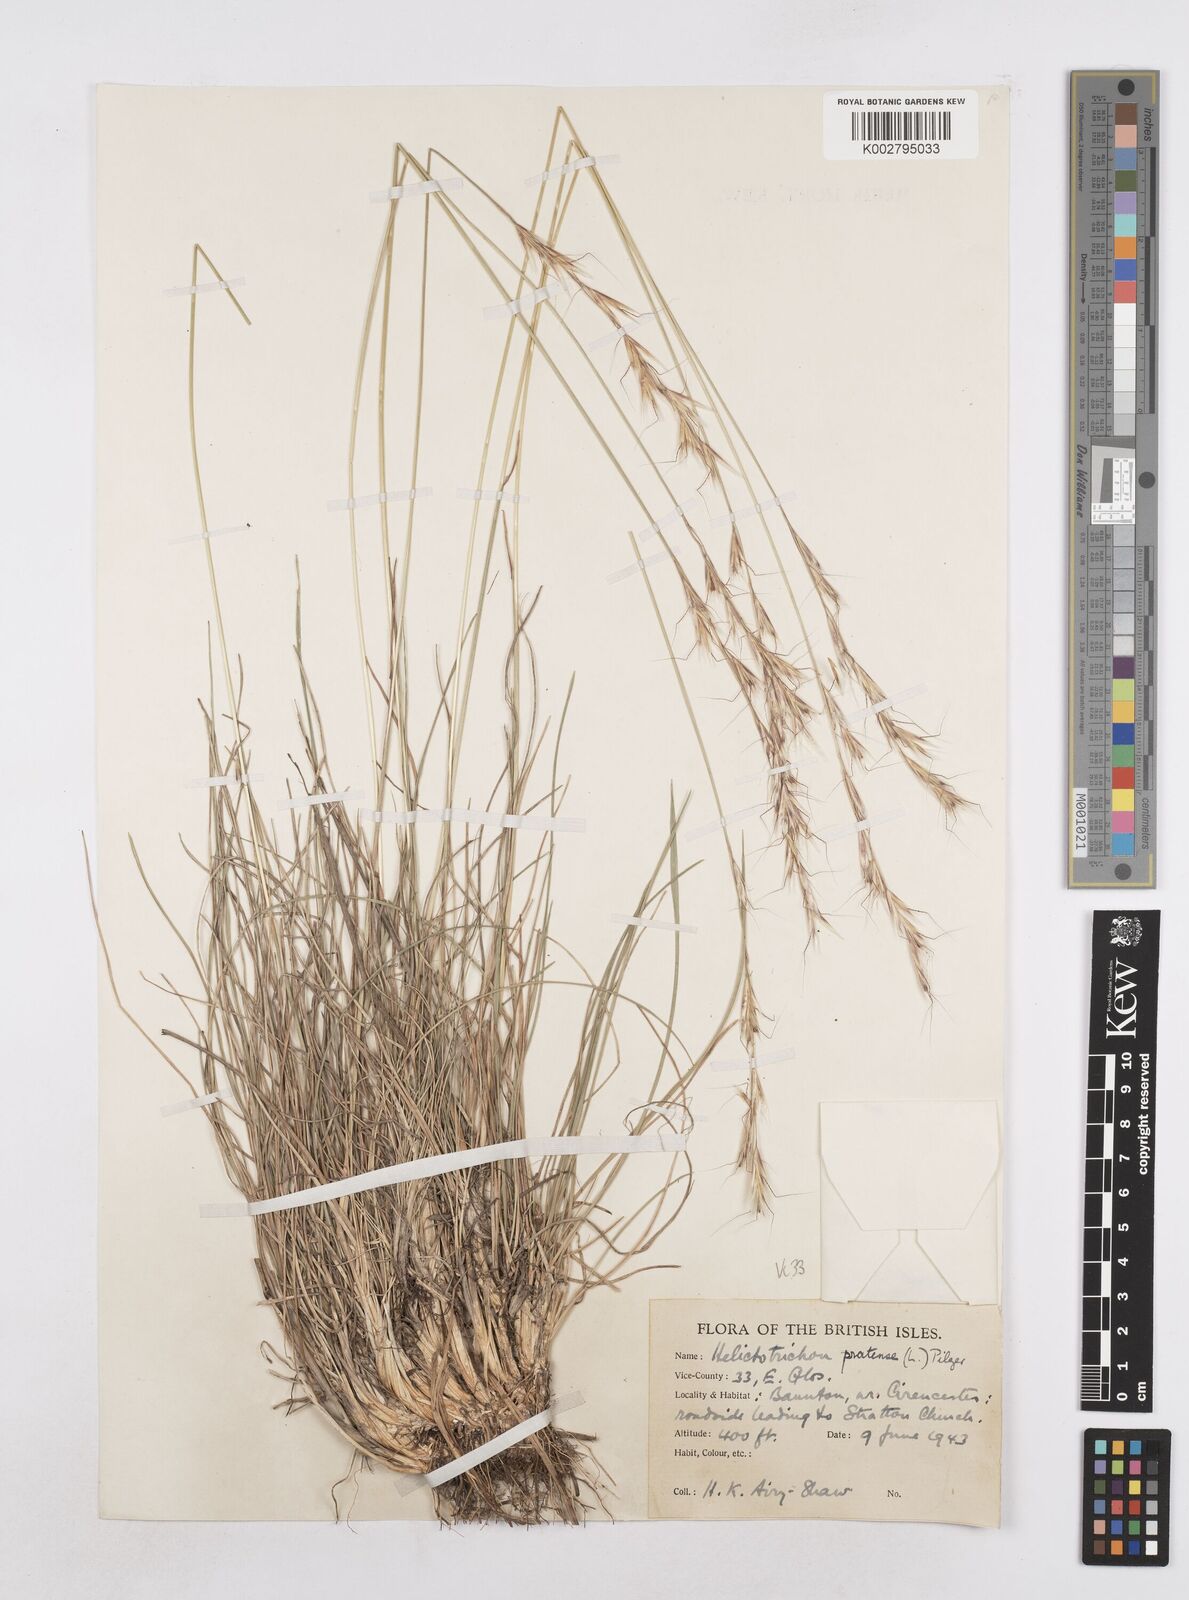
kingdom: Plantae
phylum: Tracheophyta
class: Liliopsida
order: Poales
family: Poaceae
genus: Helictochloa
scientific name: Helictochloa pratensis
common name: Meadow oat grass
